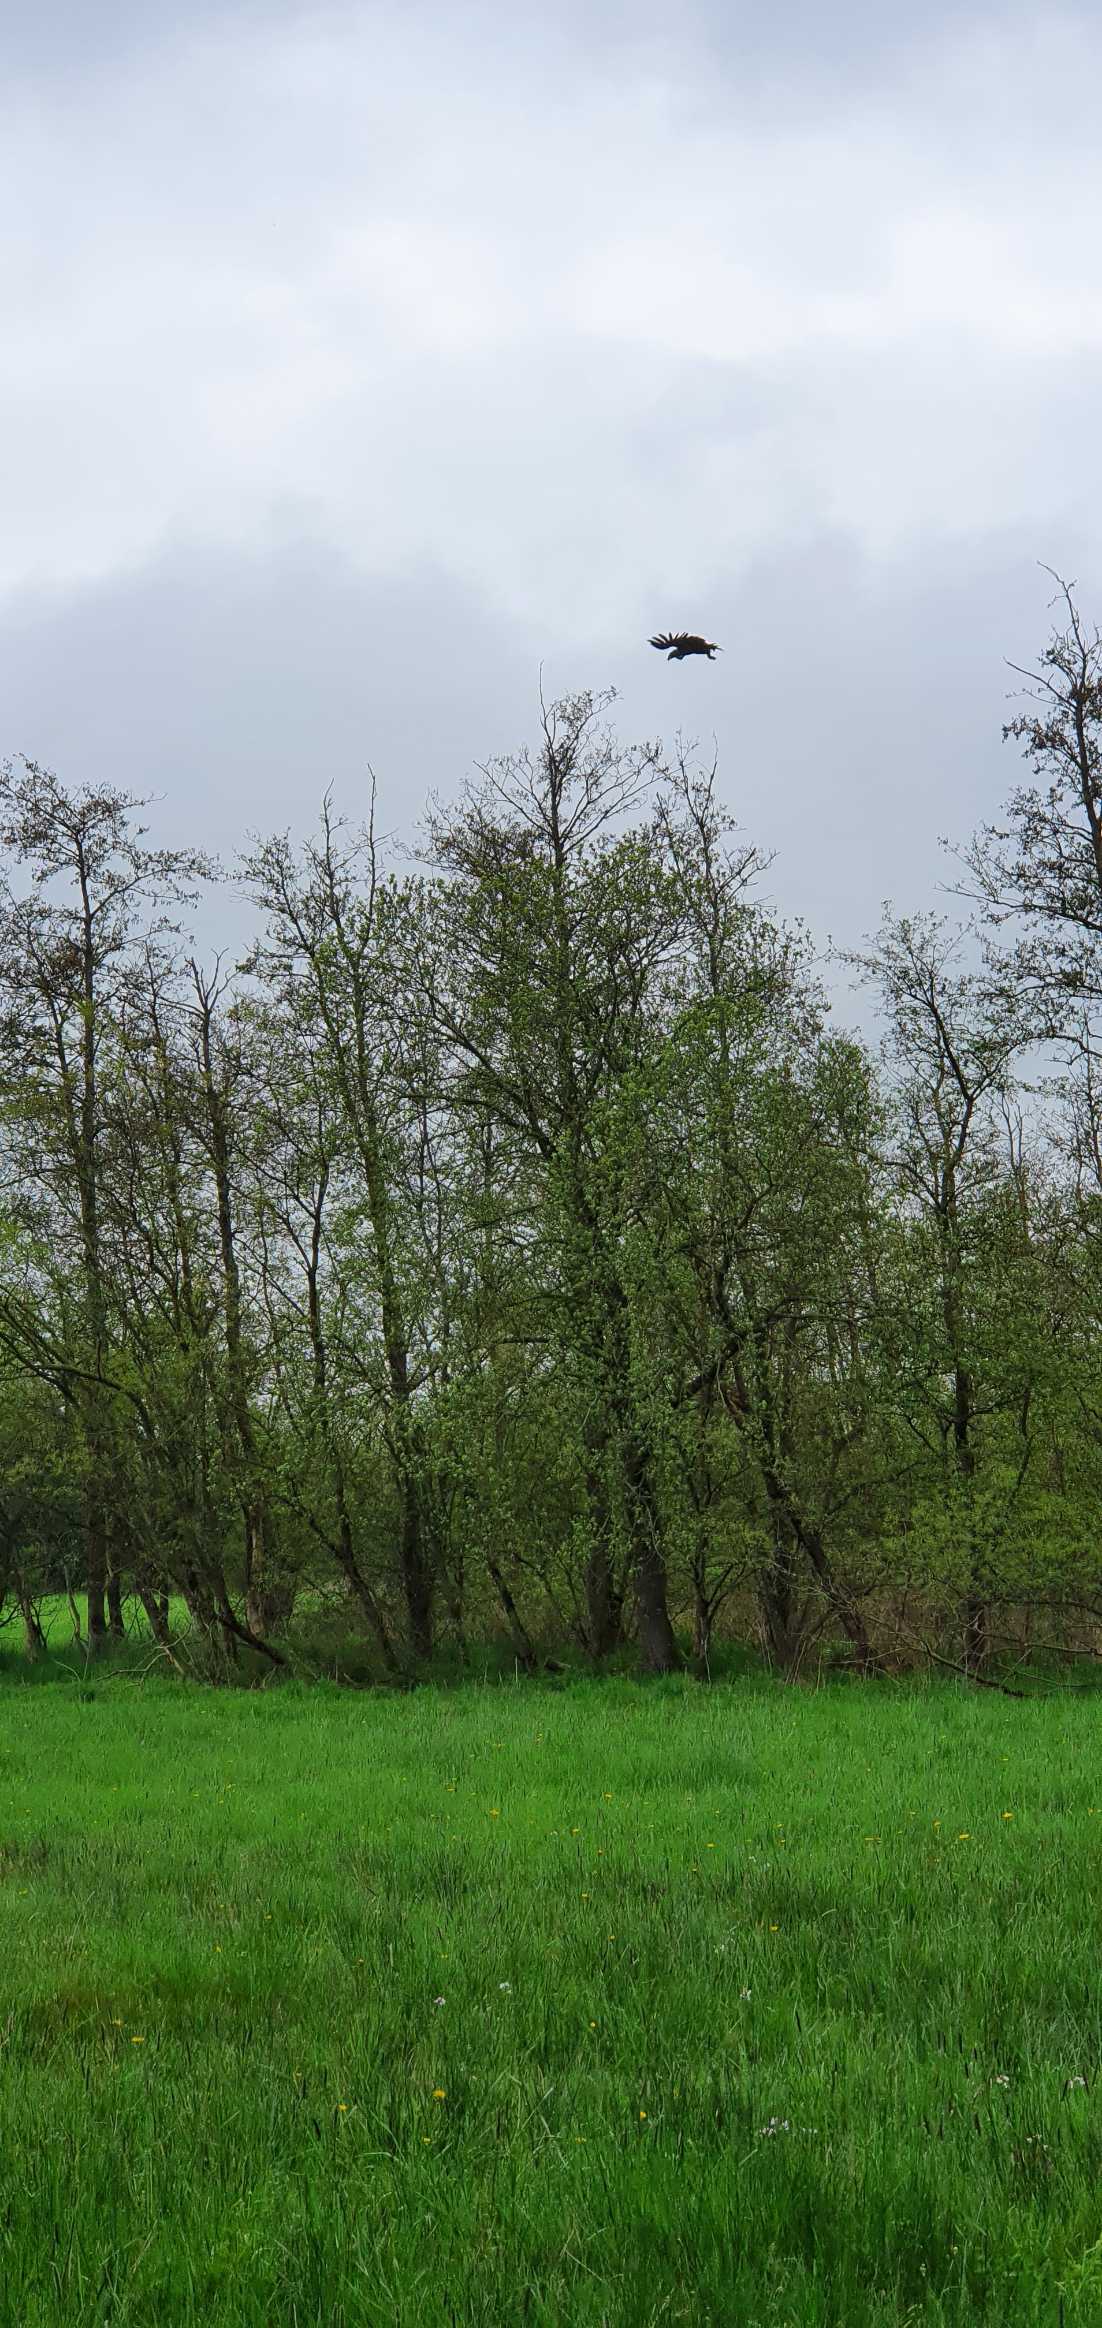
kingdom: Animalia
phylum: Chordata
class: Aves
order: Accipitriformes
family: Accipitridae
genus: Haliaeetus
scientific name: Haliaeetus albicilla
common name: Havørn
